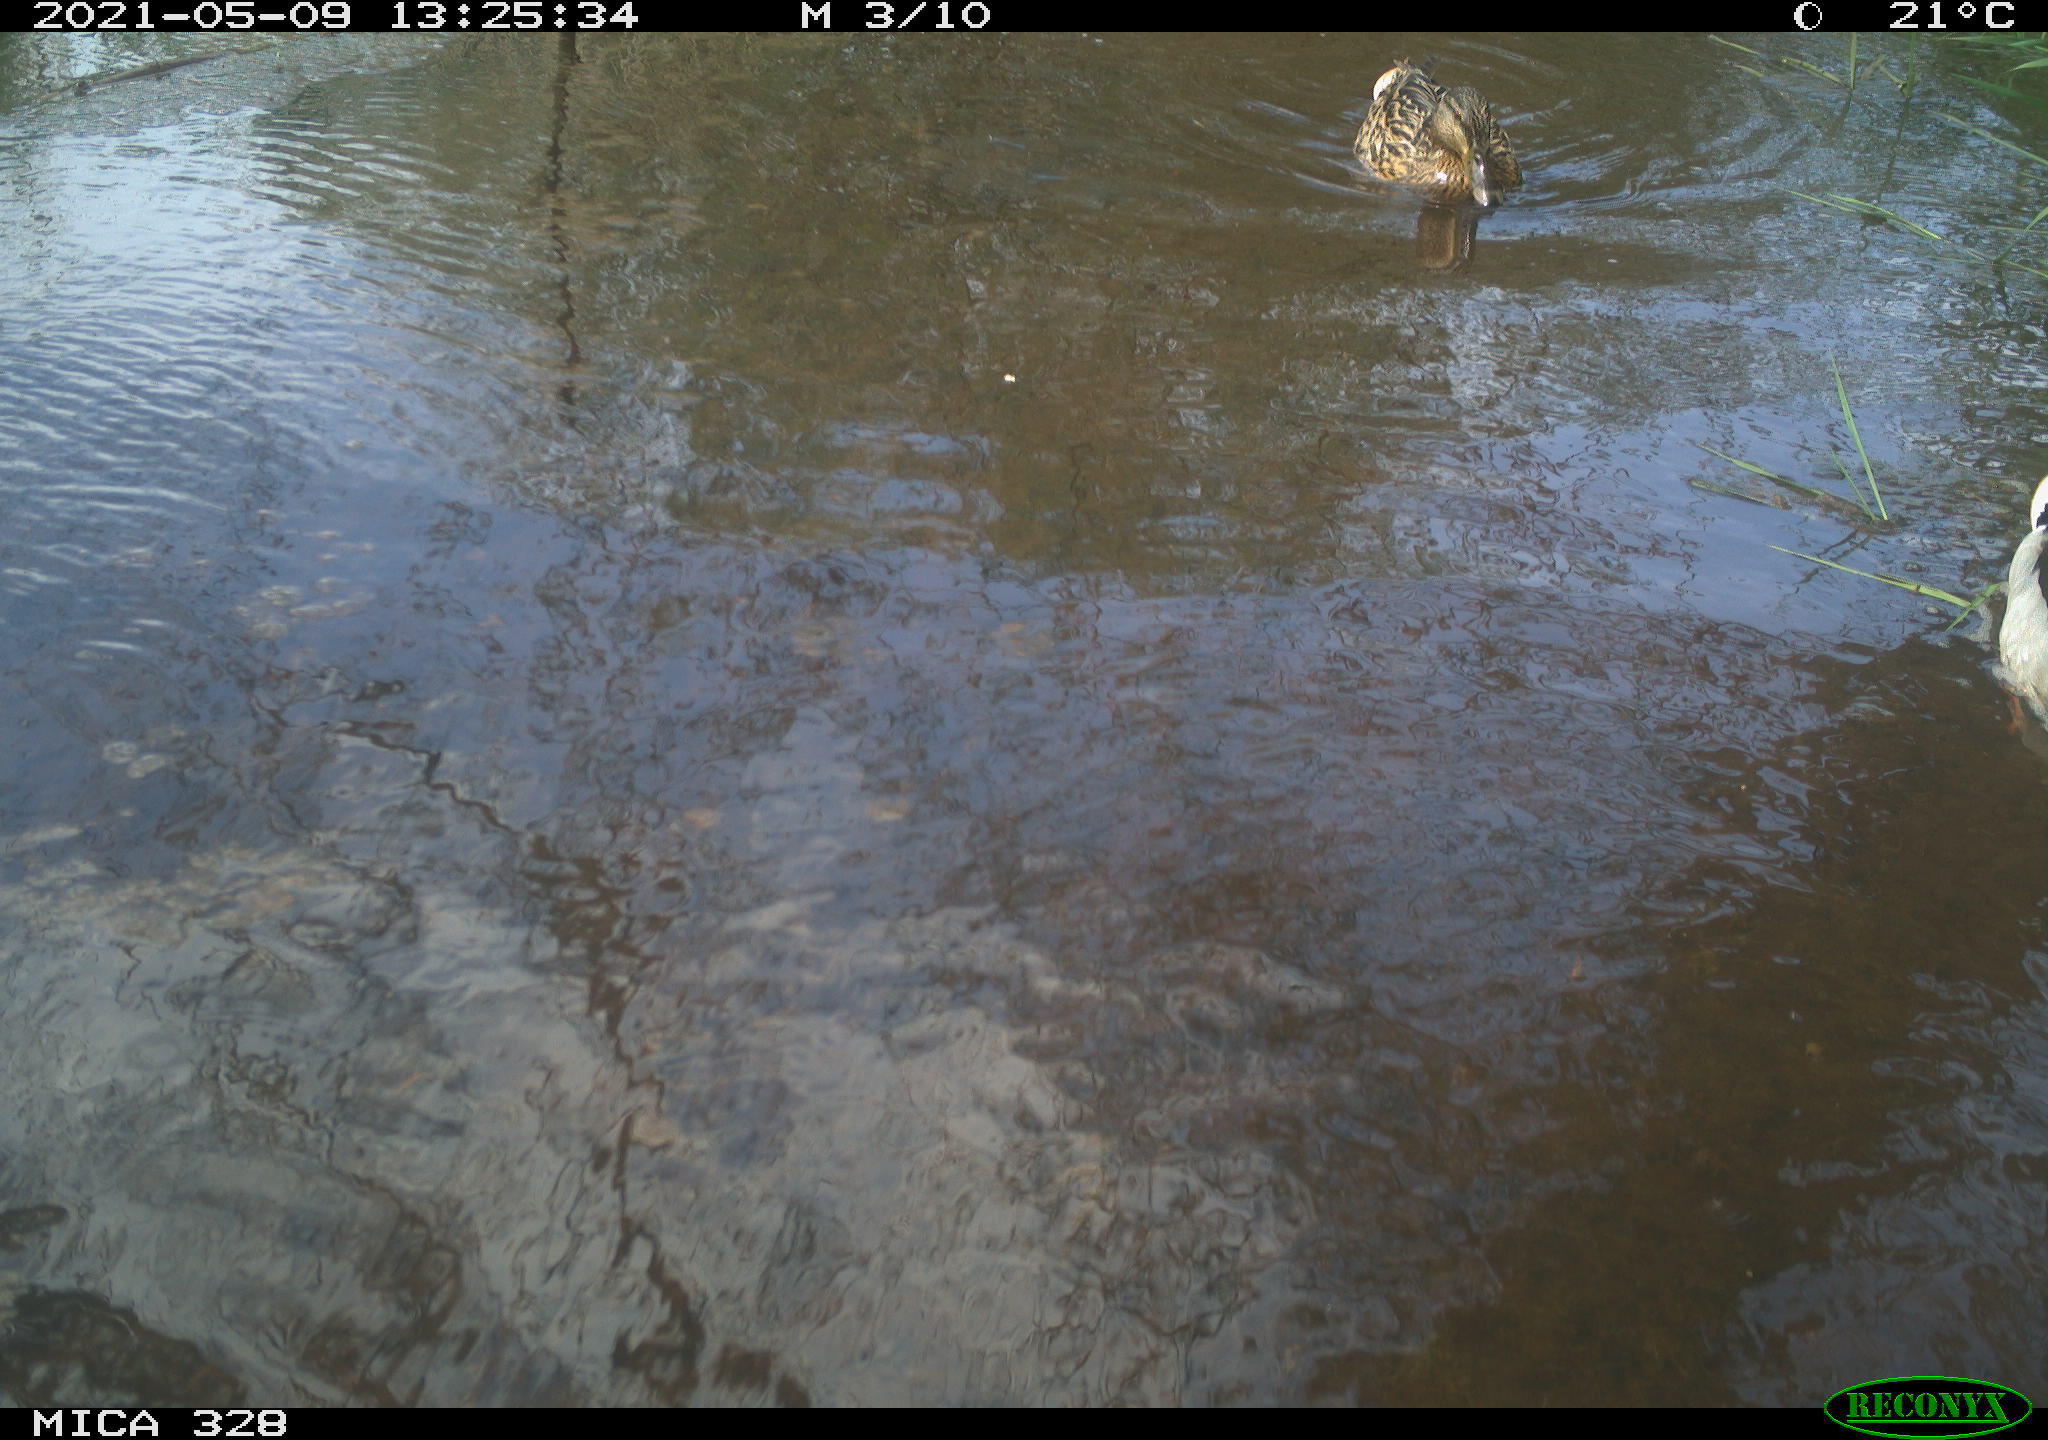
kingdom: Animalia
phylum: Chordata
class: Aves
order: Anseriformes
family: Anatidae
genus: Anas
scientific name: Anas platyrhynchos
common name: Mallard
